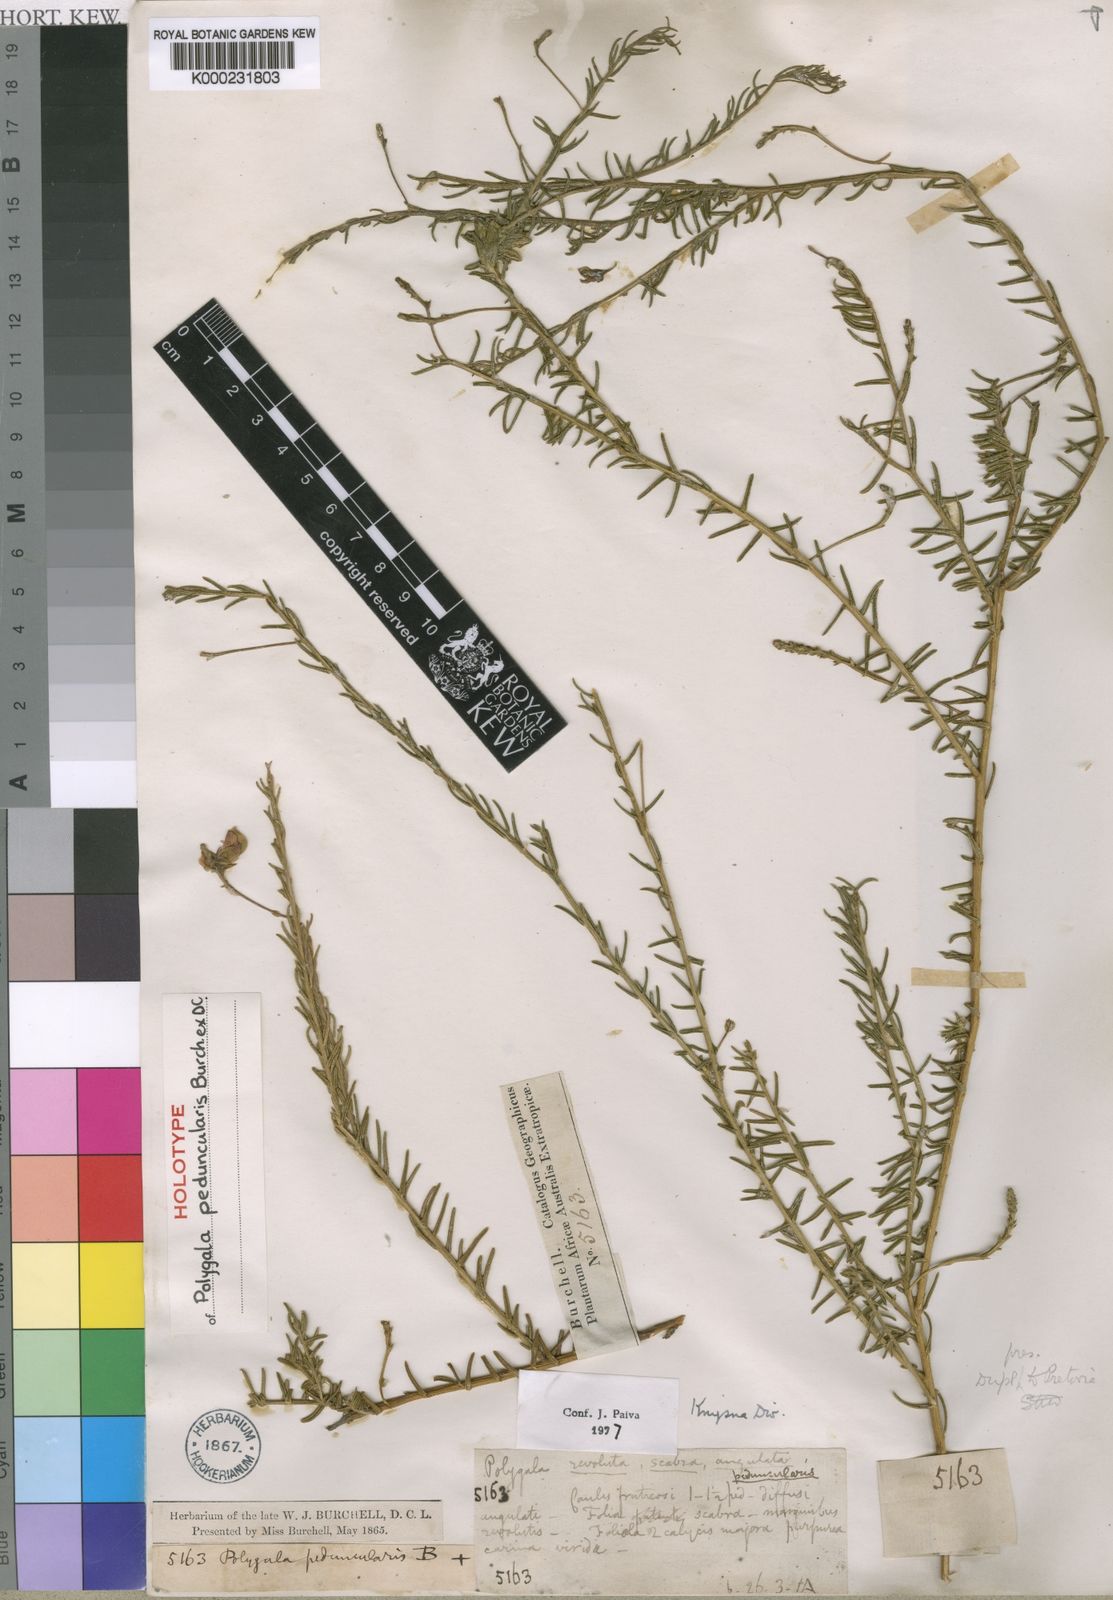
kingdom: Plantae
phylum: Tracheophyta
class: Magnoliopsida
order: Fabales
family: Polygalaceae
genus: Polygala
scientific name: Polygala peduncularis
